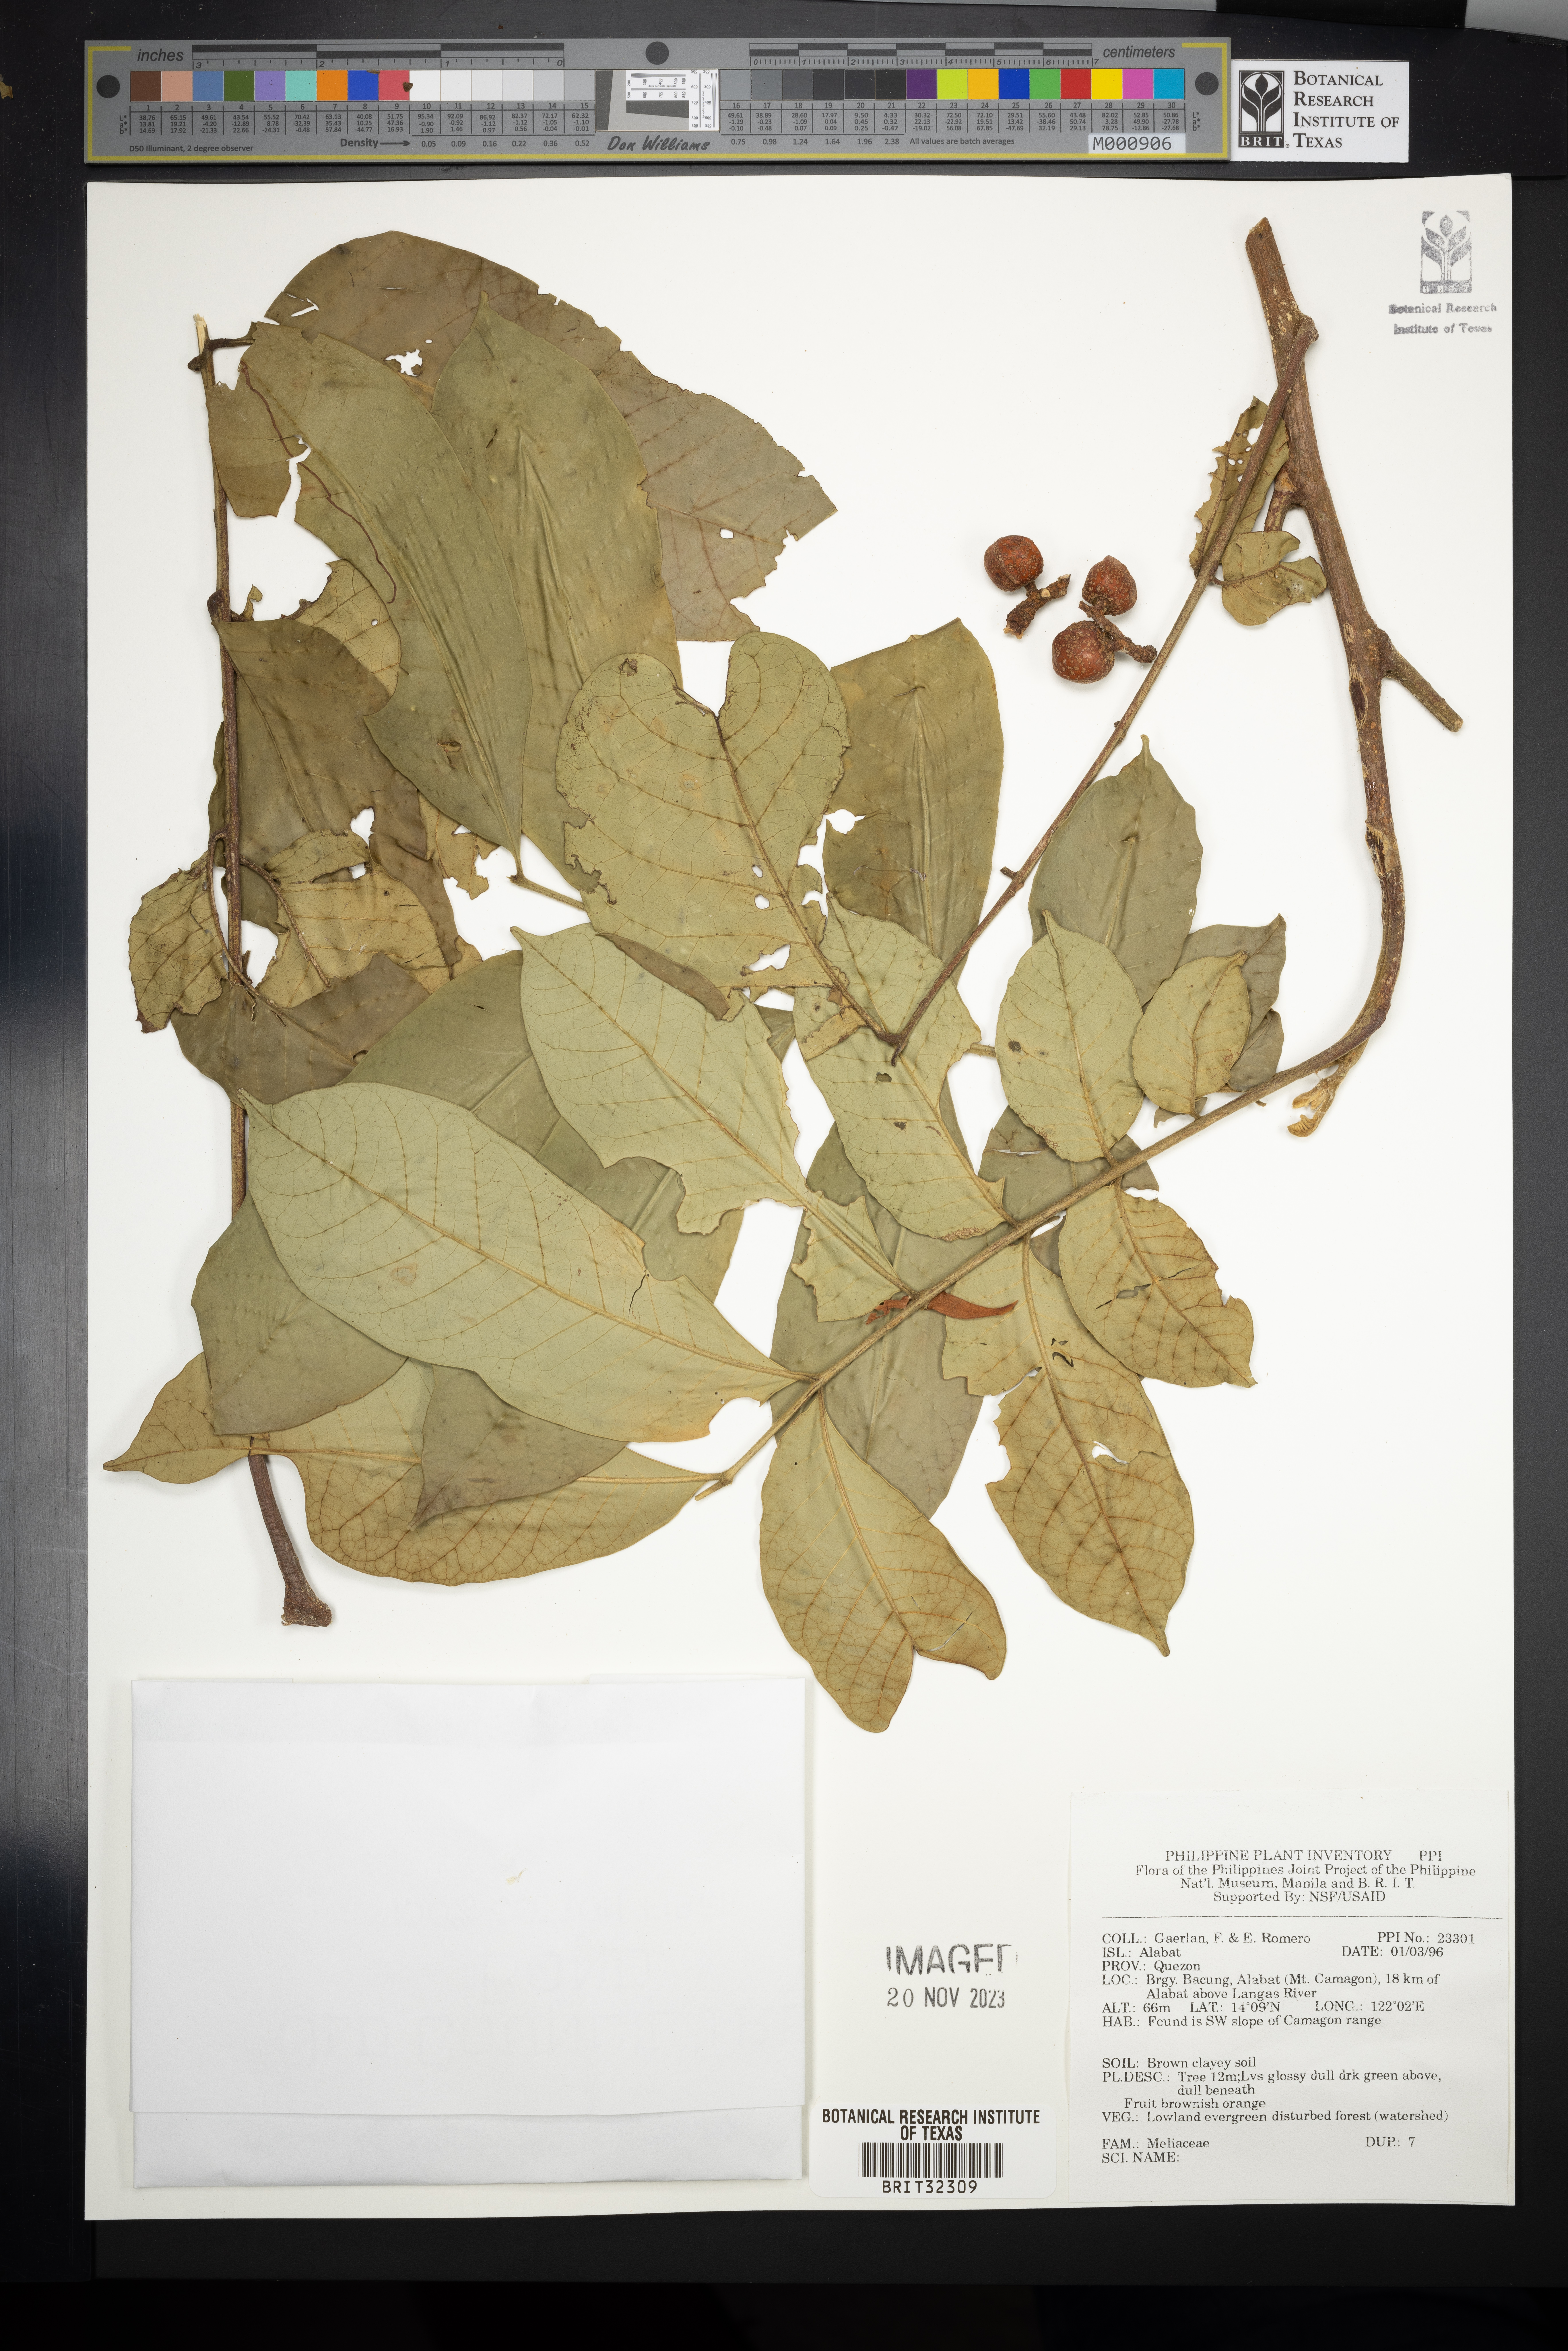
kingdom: Plantae
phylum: Tracheophyta
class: Magnoliopsida
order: Sapindales
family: Meliaceae
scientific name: Meliaceae
